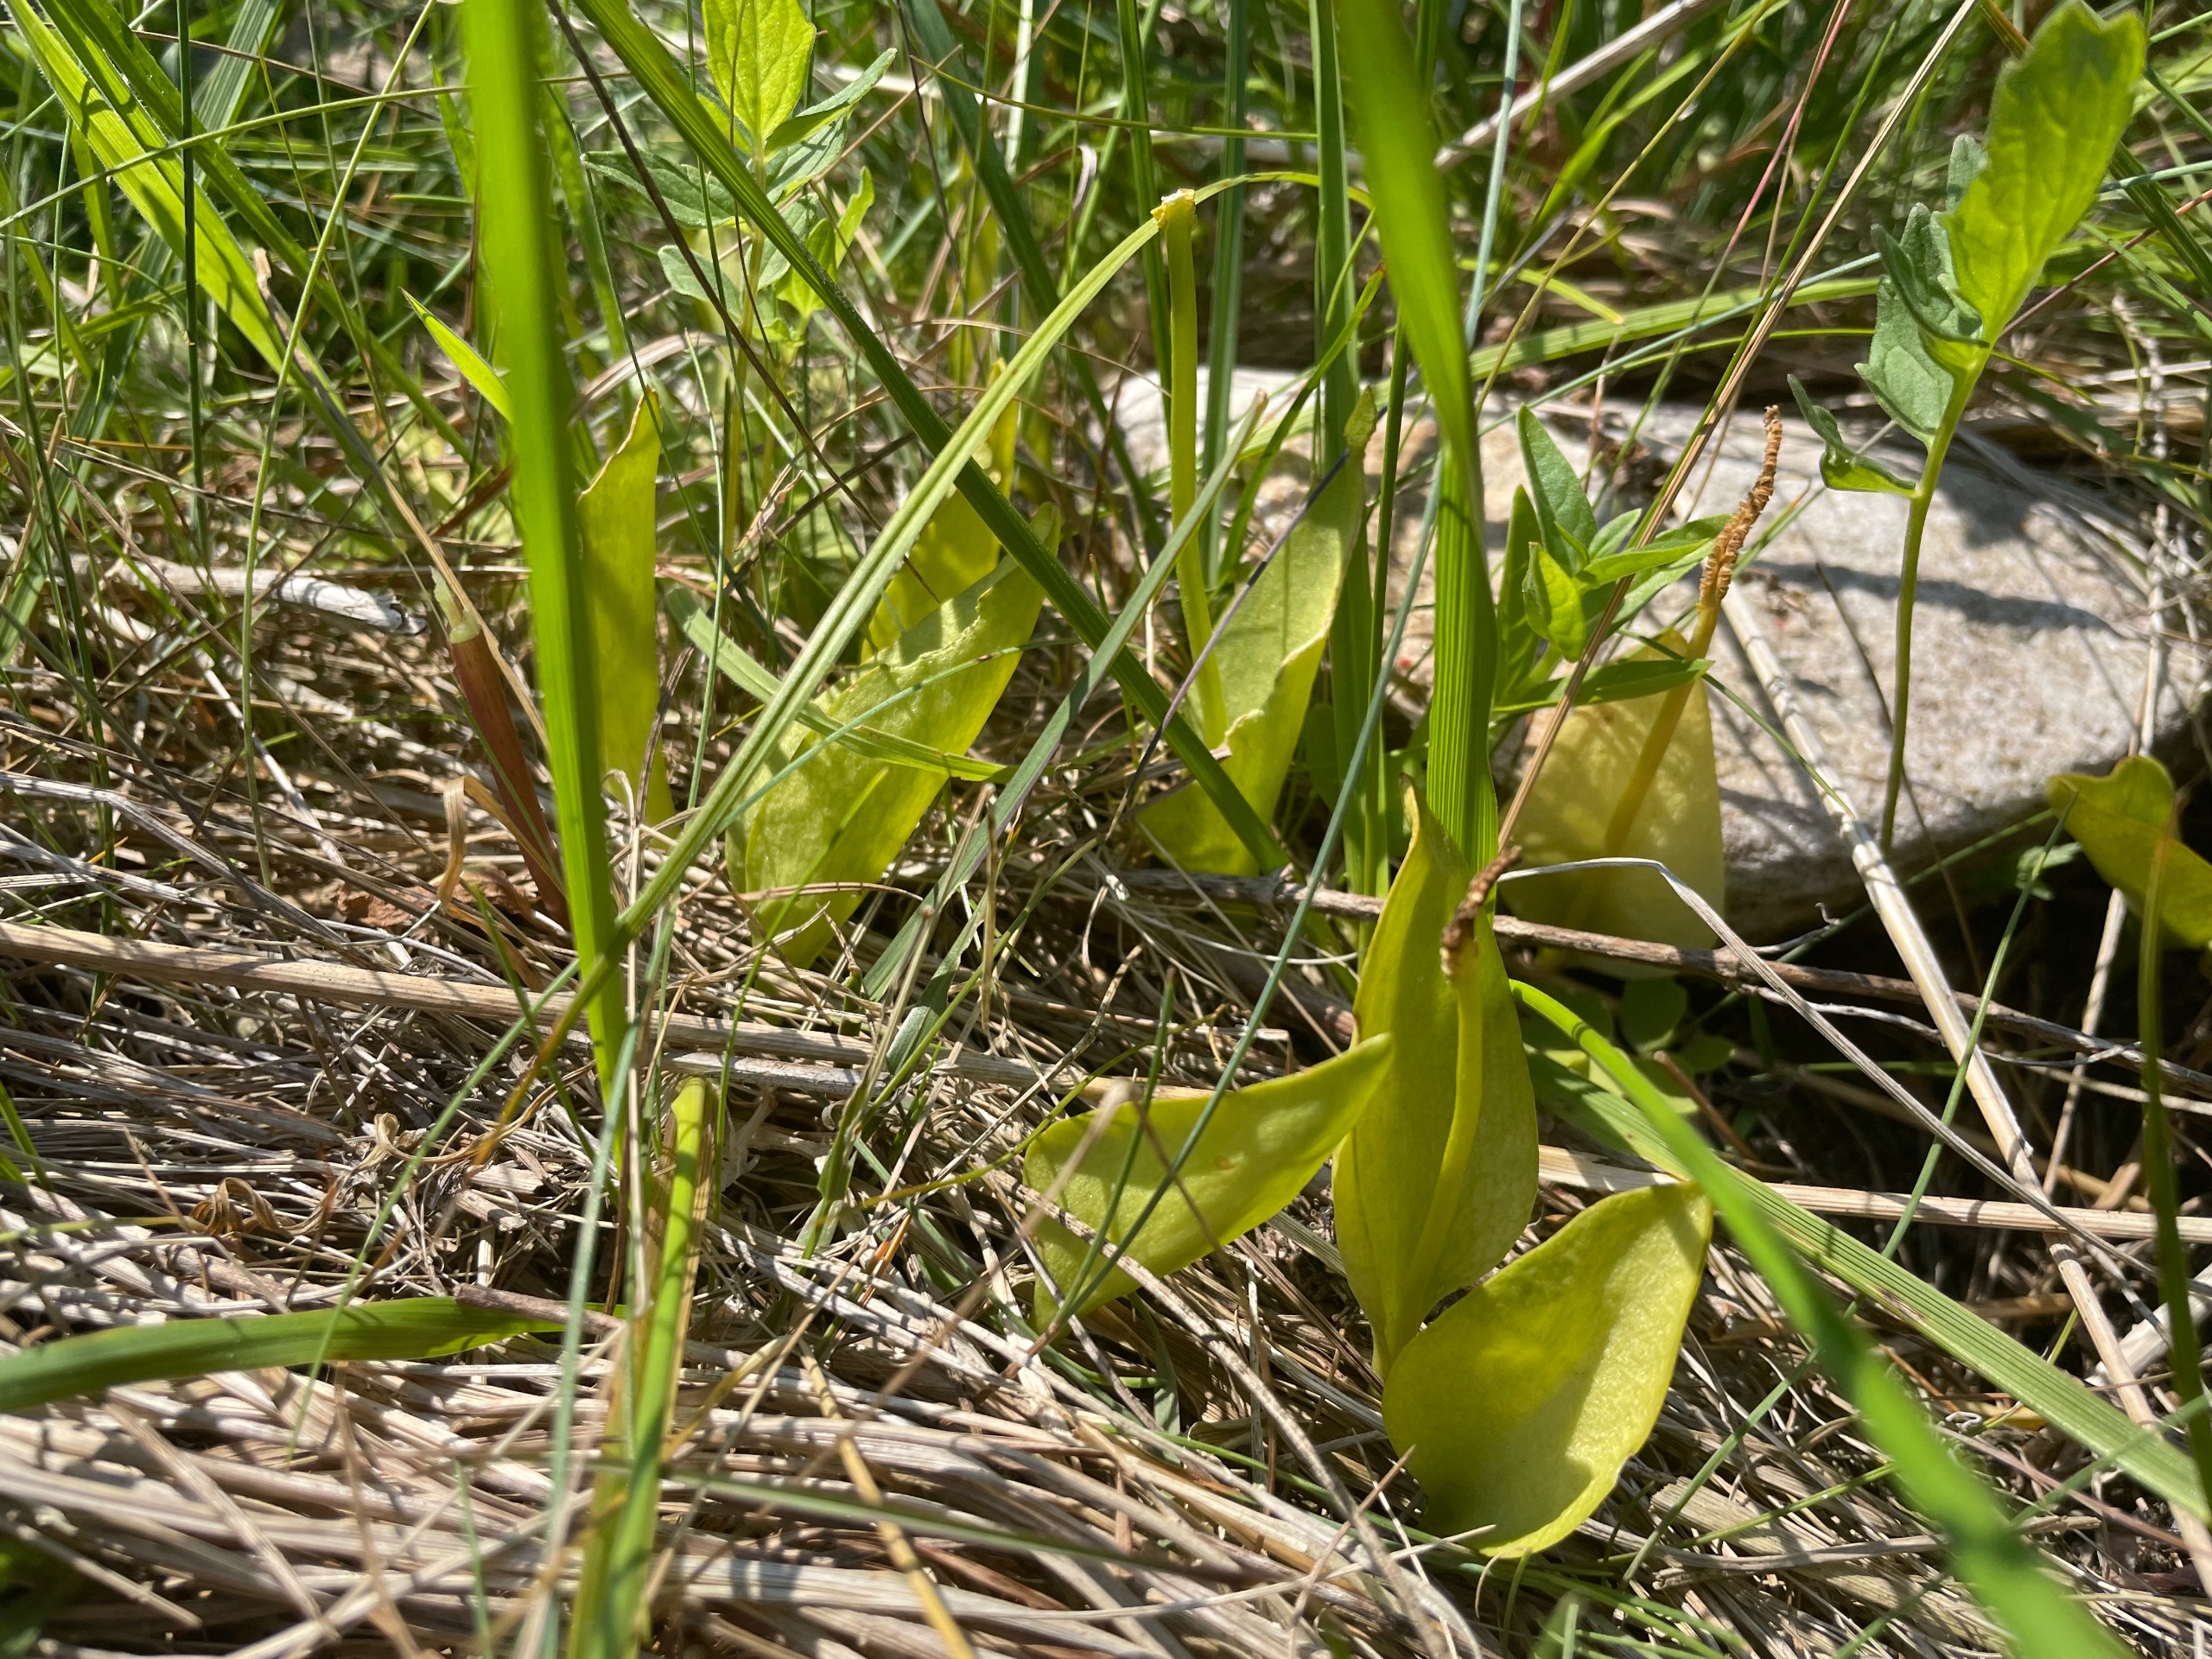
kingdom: Plantae
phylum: Tracheophyta
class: Polypodiopsida
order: Ophioglossales
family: Ophioglossaceae
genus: Ophioglossum
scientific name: Ophioglossum vulgatum
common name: Slangetunge
